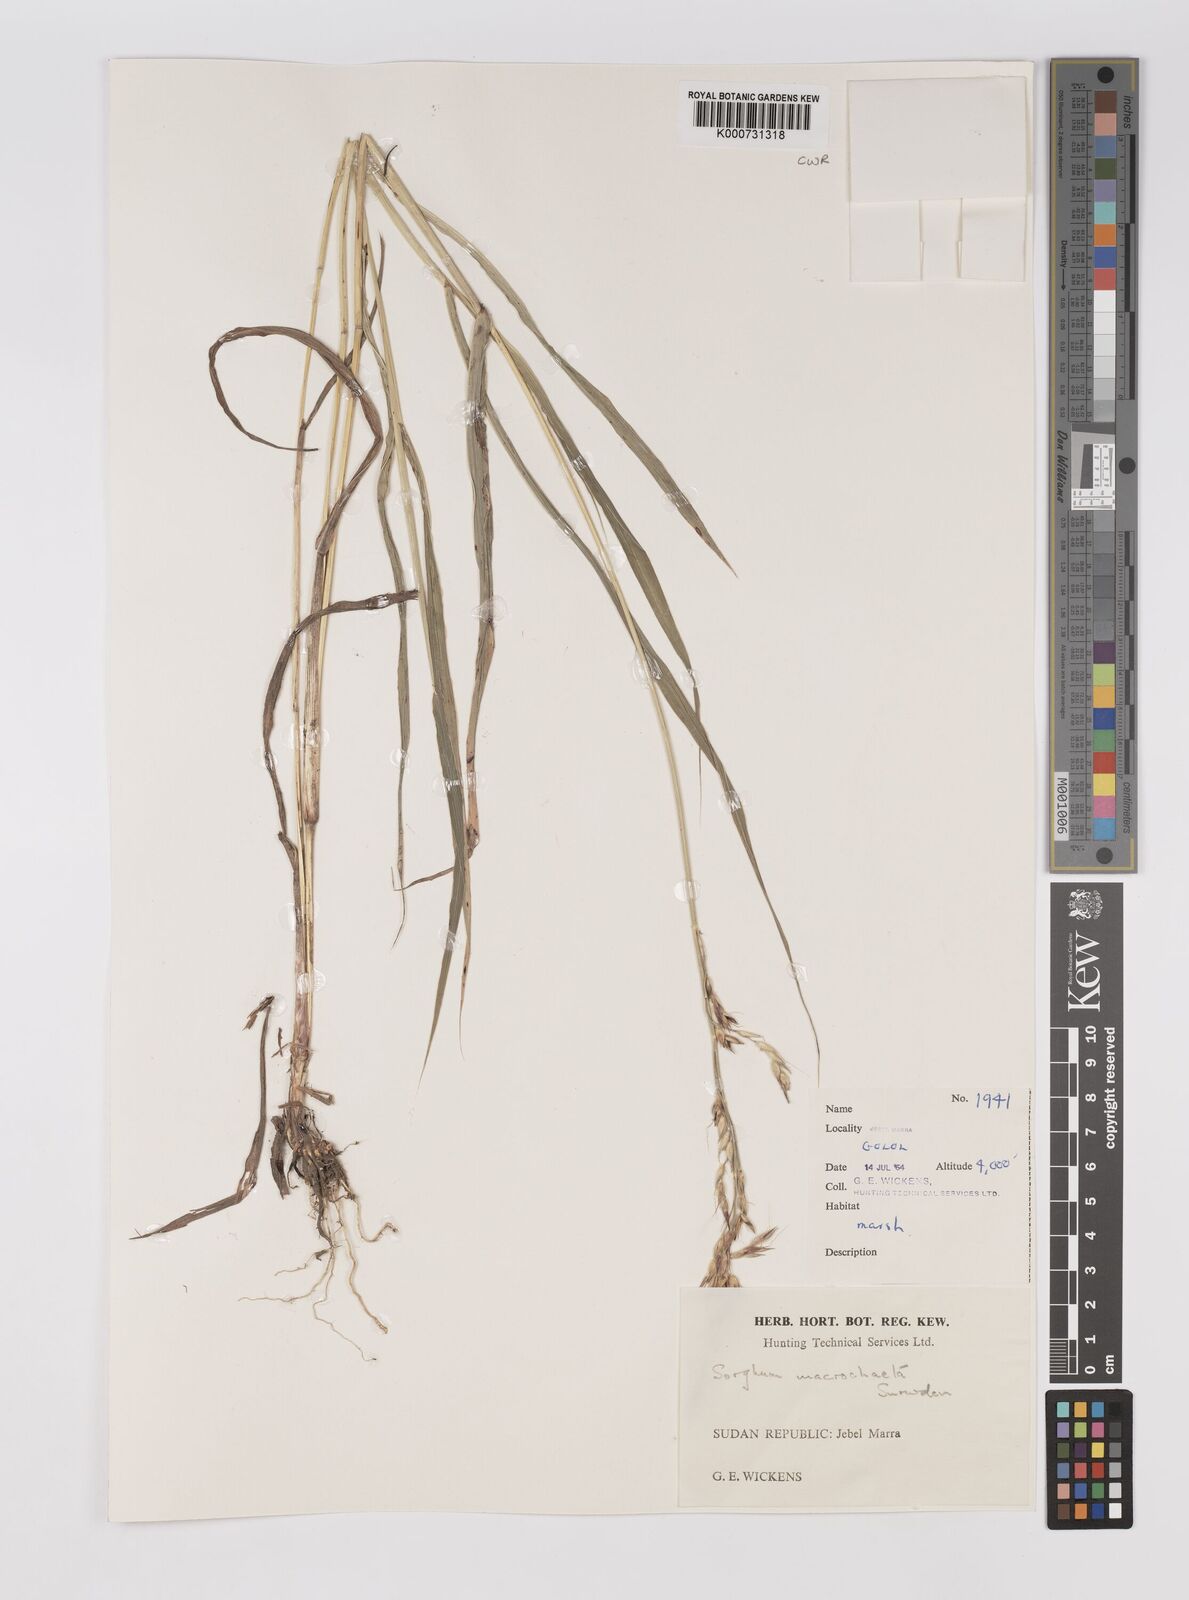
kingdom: Plantae
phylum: Tracheophyta
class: Liliopsida
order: Poales
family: Poaceae
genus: Sorghum
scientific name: Sorghum arundinaceum
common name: Sorghum
